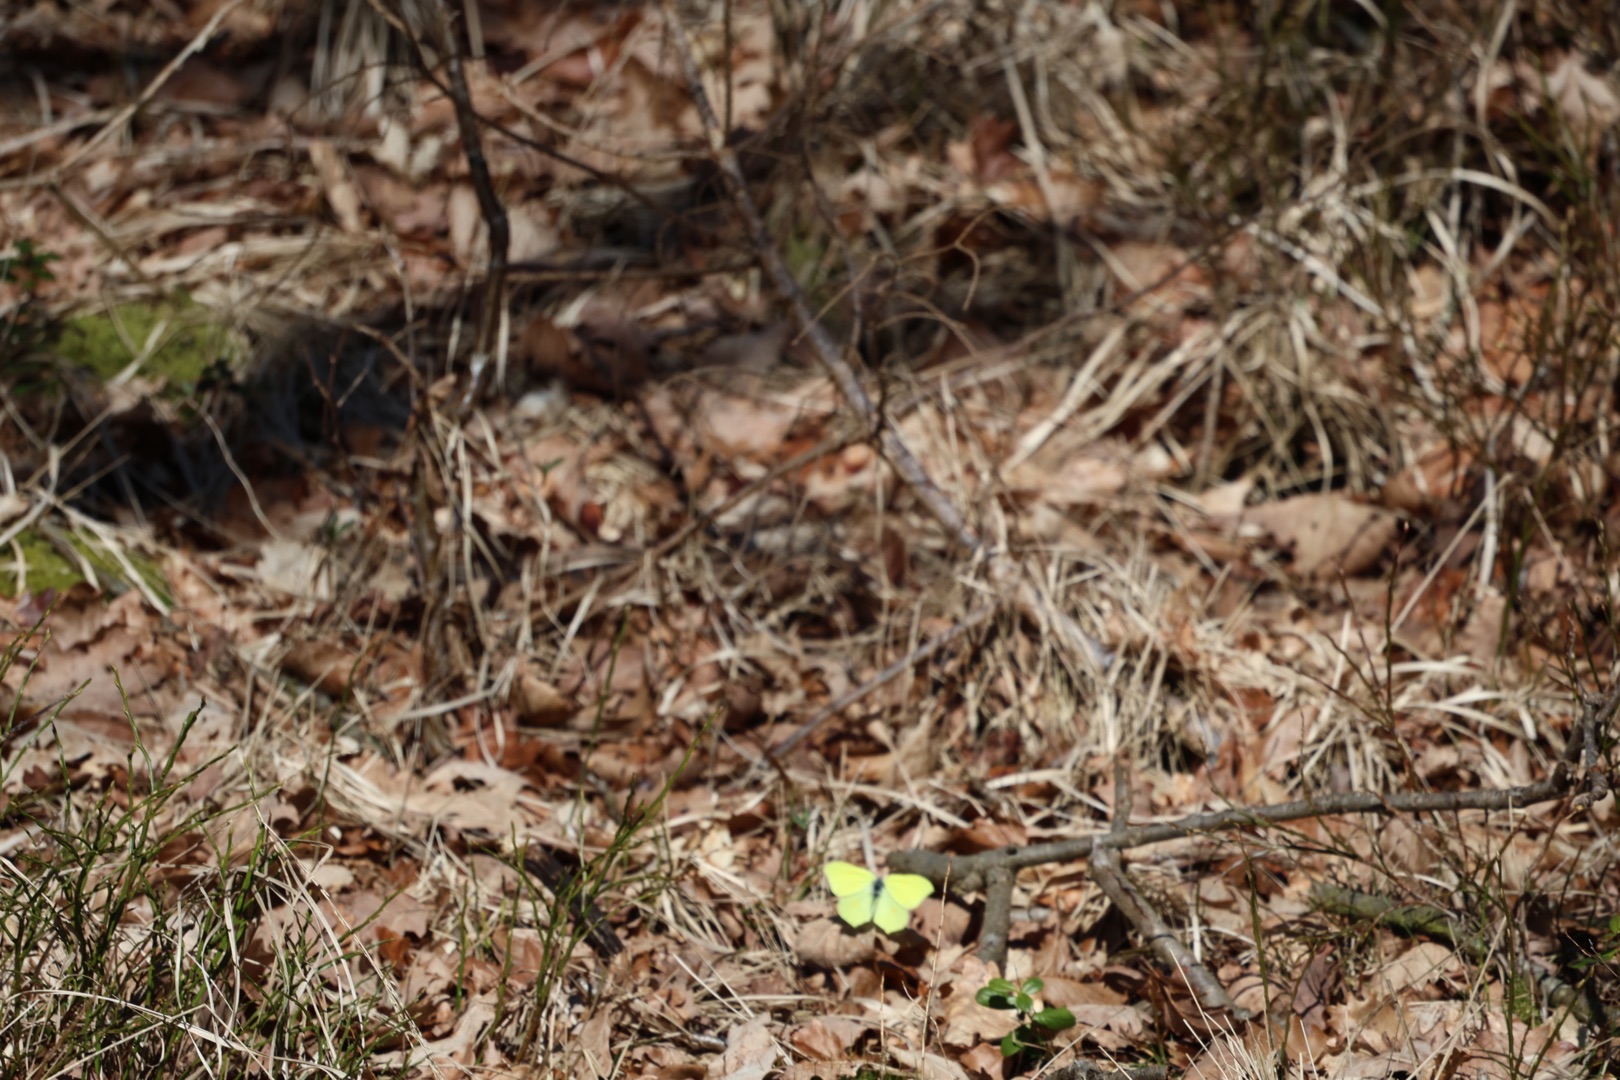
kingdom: Animalia
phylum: Arthropoda
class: Insecta
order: Lepidoptera
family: Pieridae
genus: Gonepteryx
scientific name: Gonepteryx rhamni
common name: Citronsommerfugl
